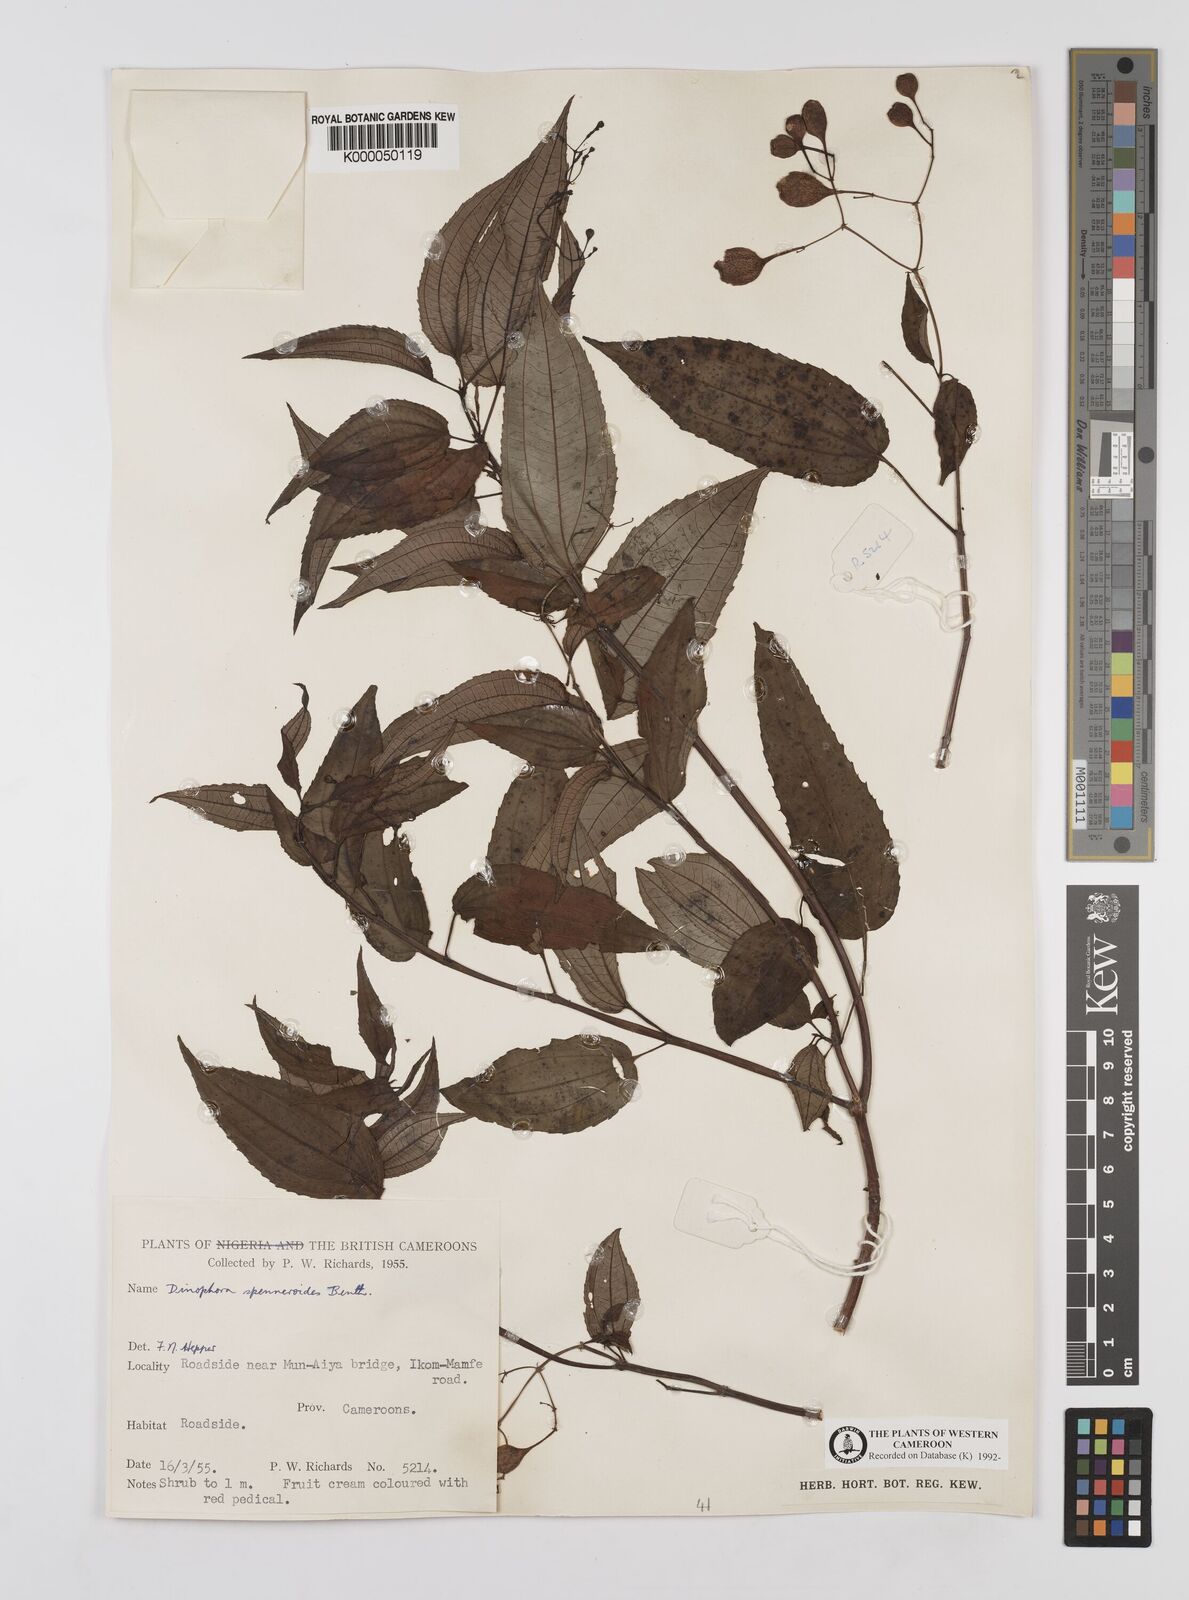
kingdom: Plantae
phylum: Tracheophyta
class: Magnoliopsida
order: Myrtales
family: Melastomataceae
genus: Dinophora
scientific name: Dinophora spenneroides
